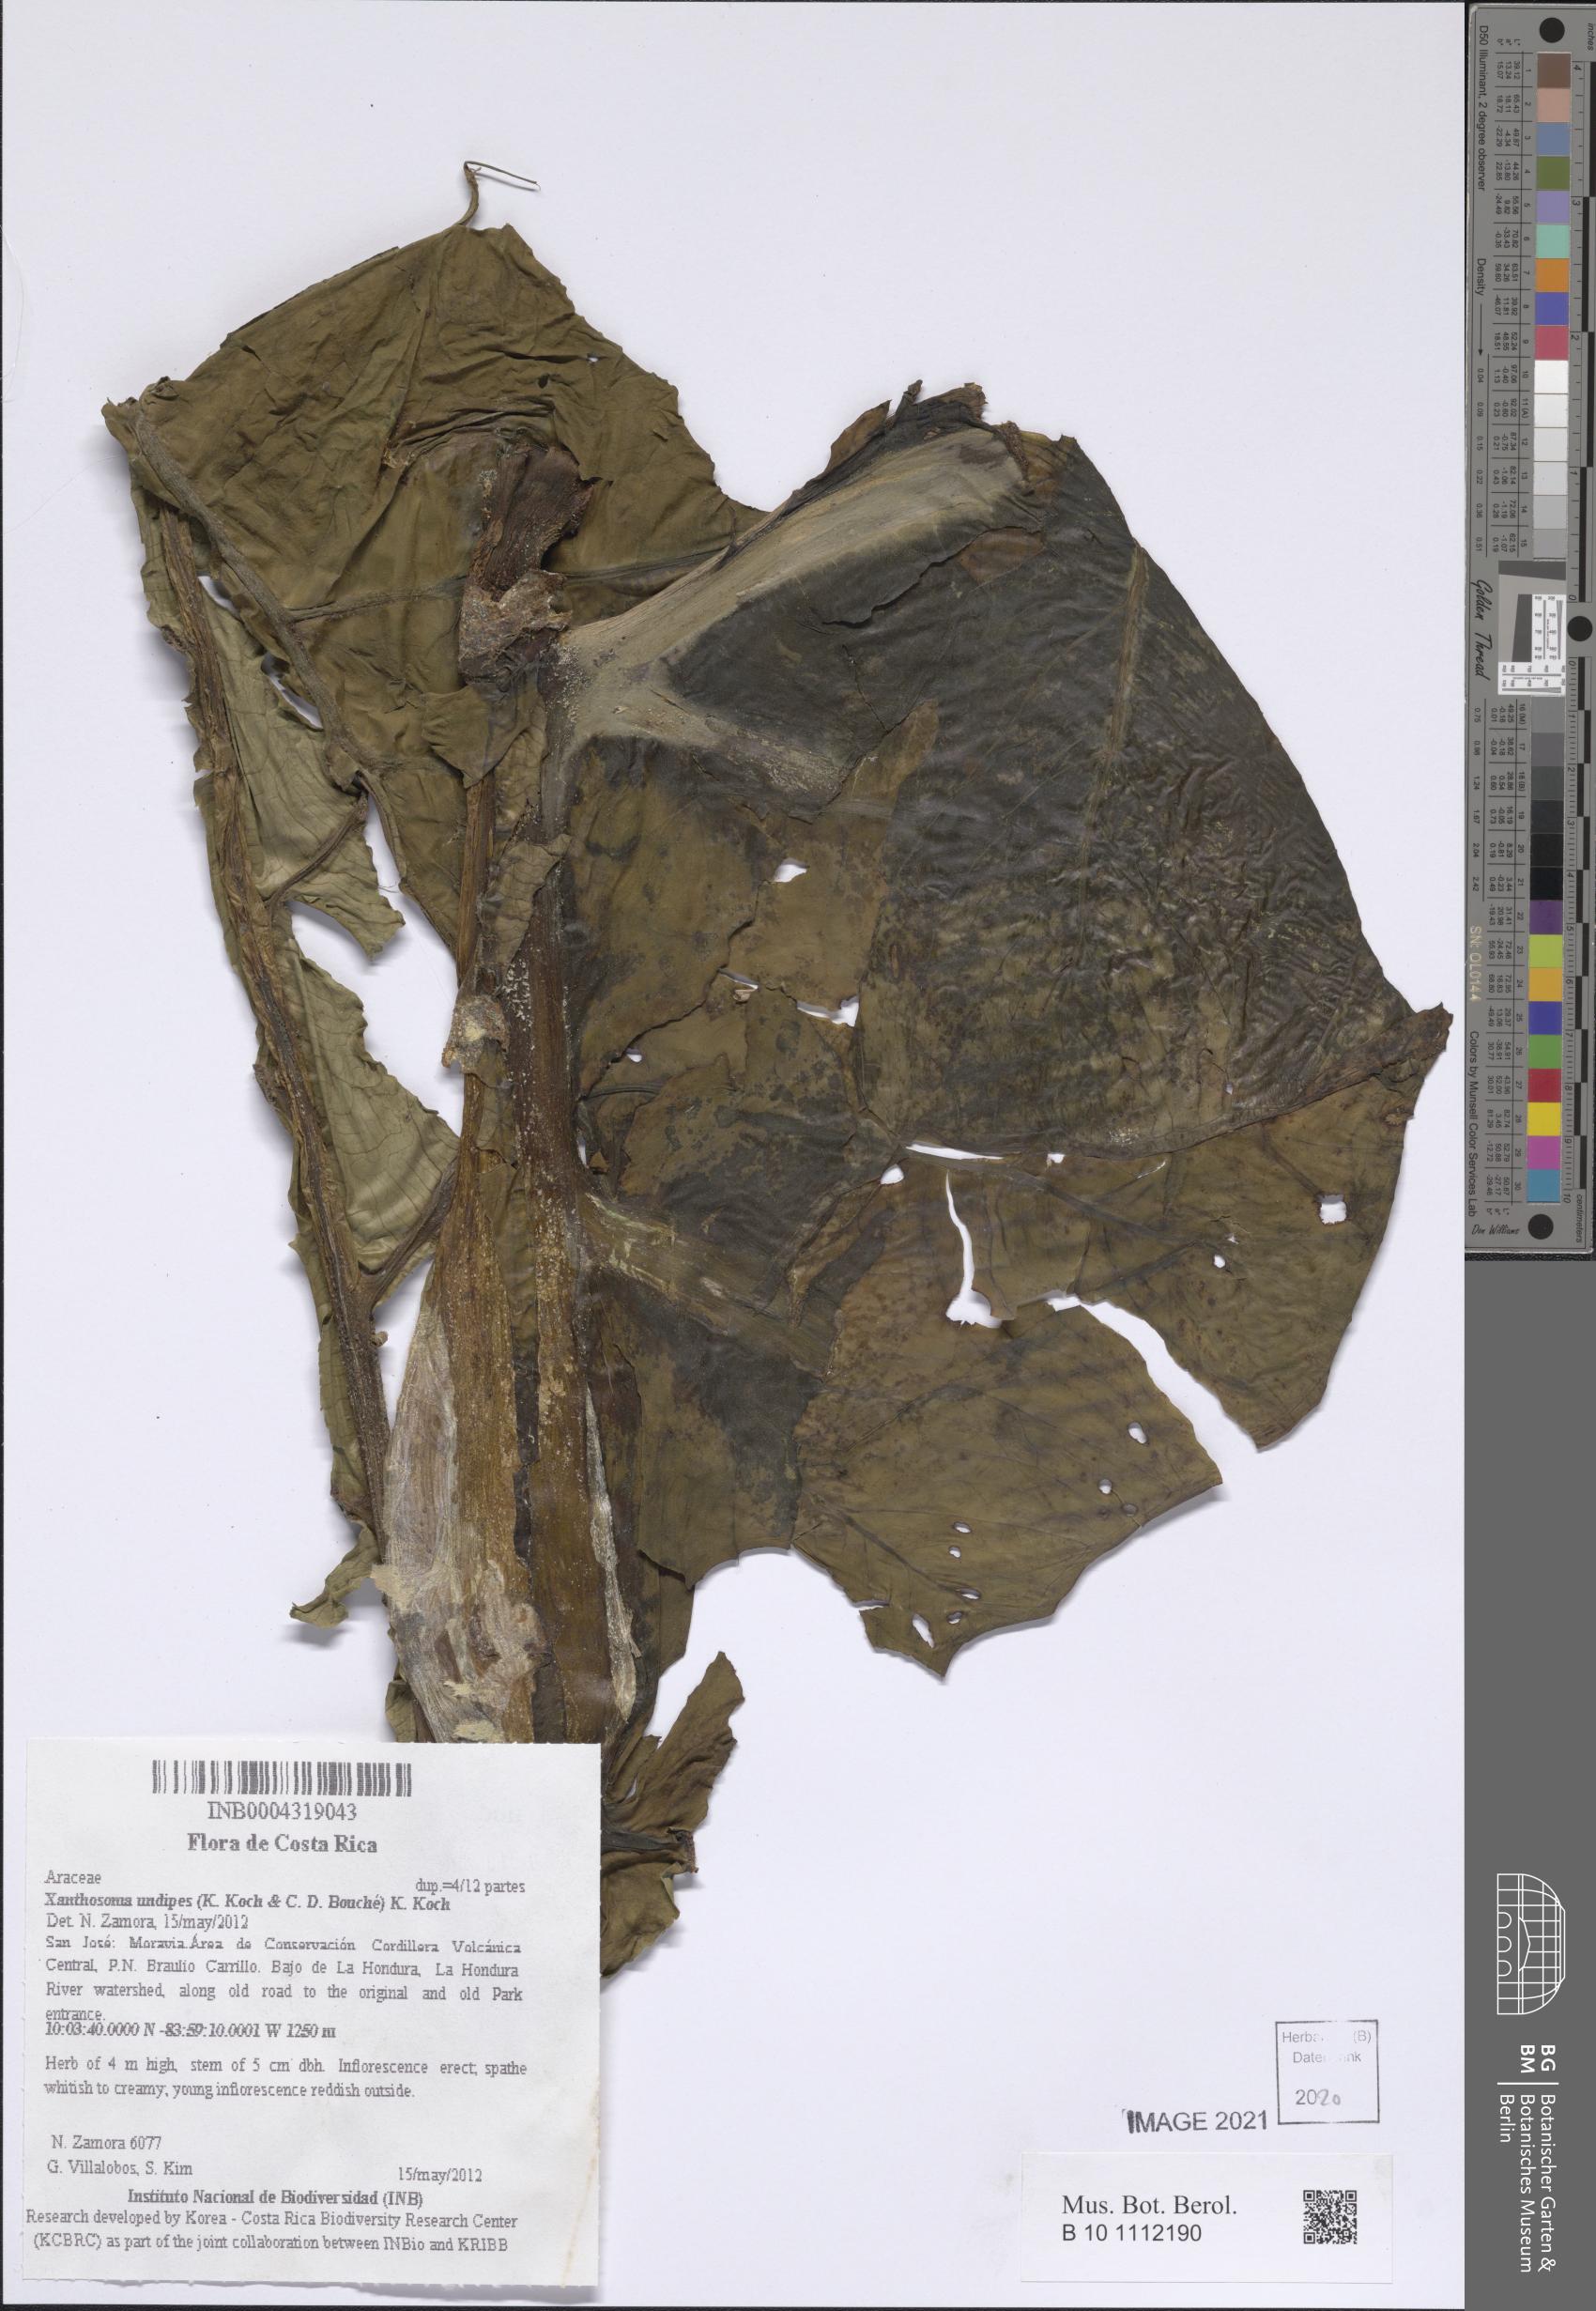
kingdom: Plantae
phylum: Tracheophyta
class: Liliopsida
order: Alismatales
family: Araceae
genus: Xanthosoma
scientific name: Xanthosoma undipes
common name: Tall elephant's ear
